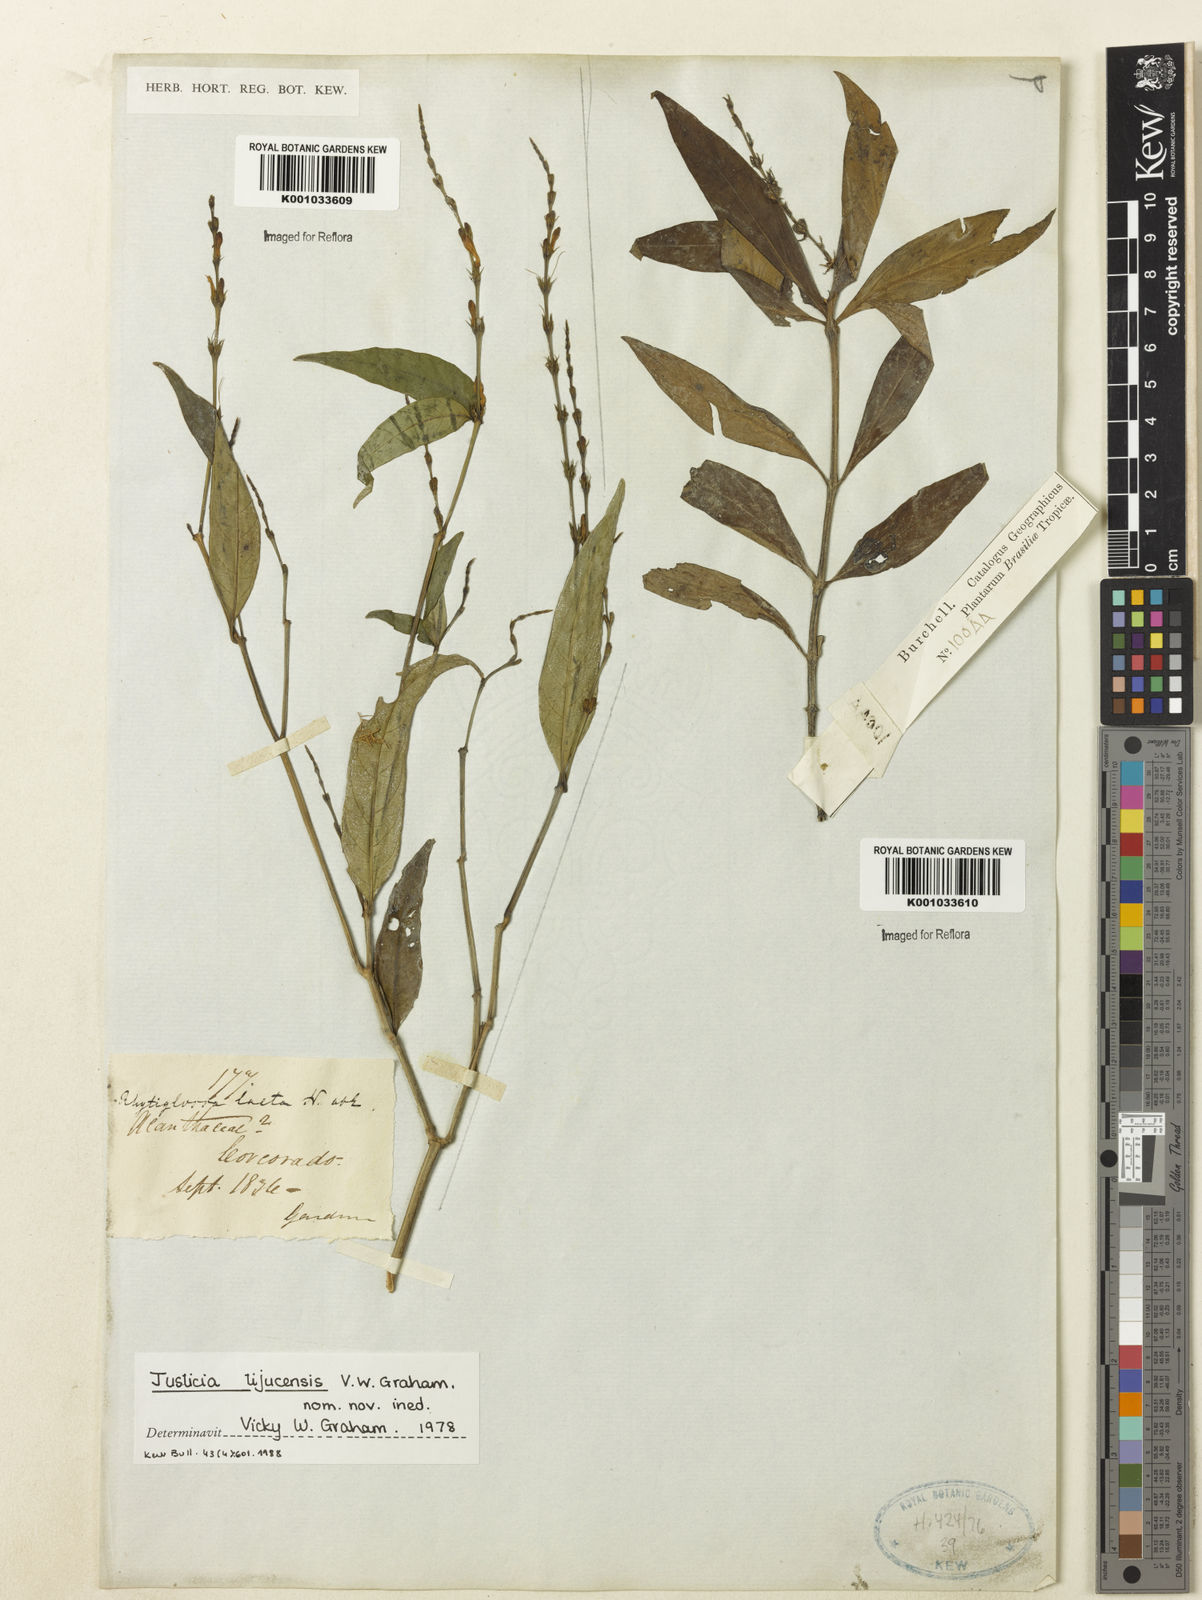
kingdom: Plantae
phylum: Tracheophyta
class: Magnoliopsida
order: Lamiales
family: Acanthaceae
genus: Dianthera
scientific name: Dianthera laeta
